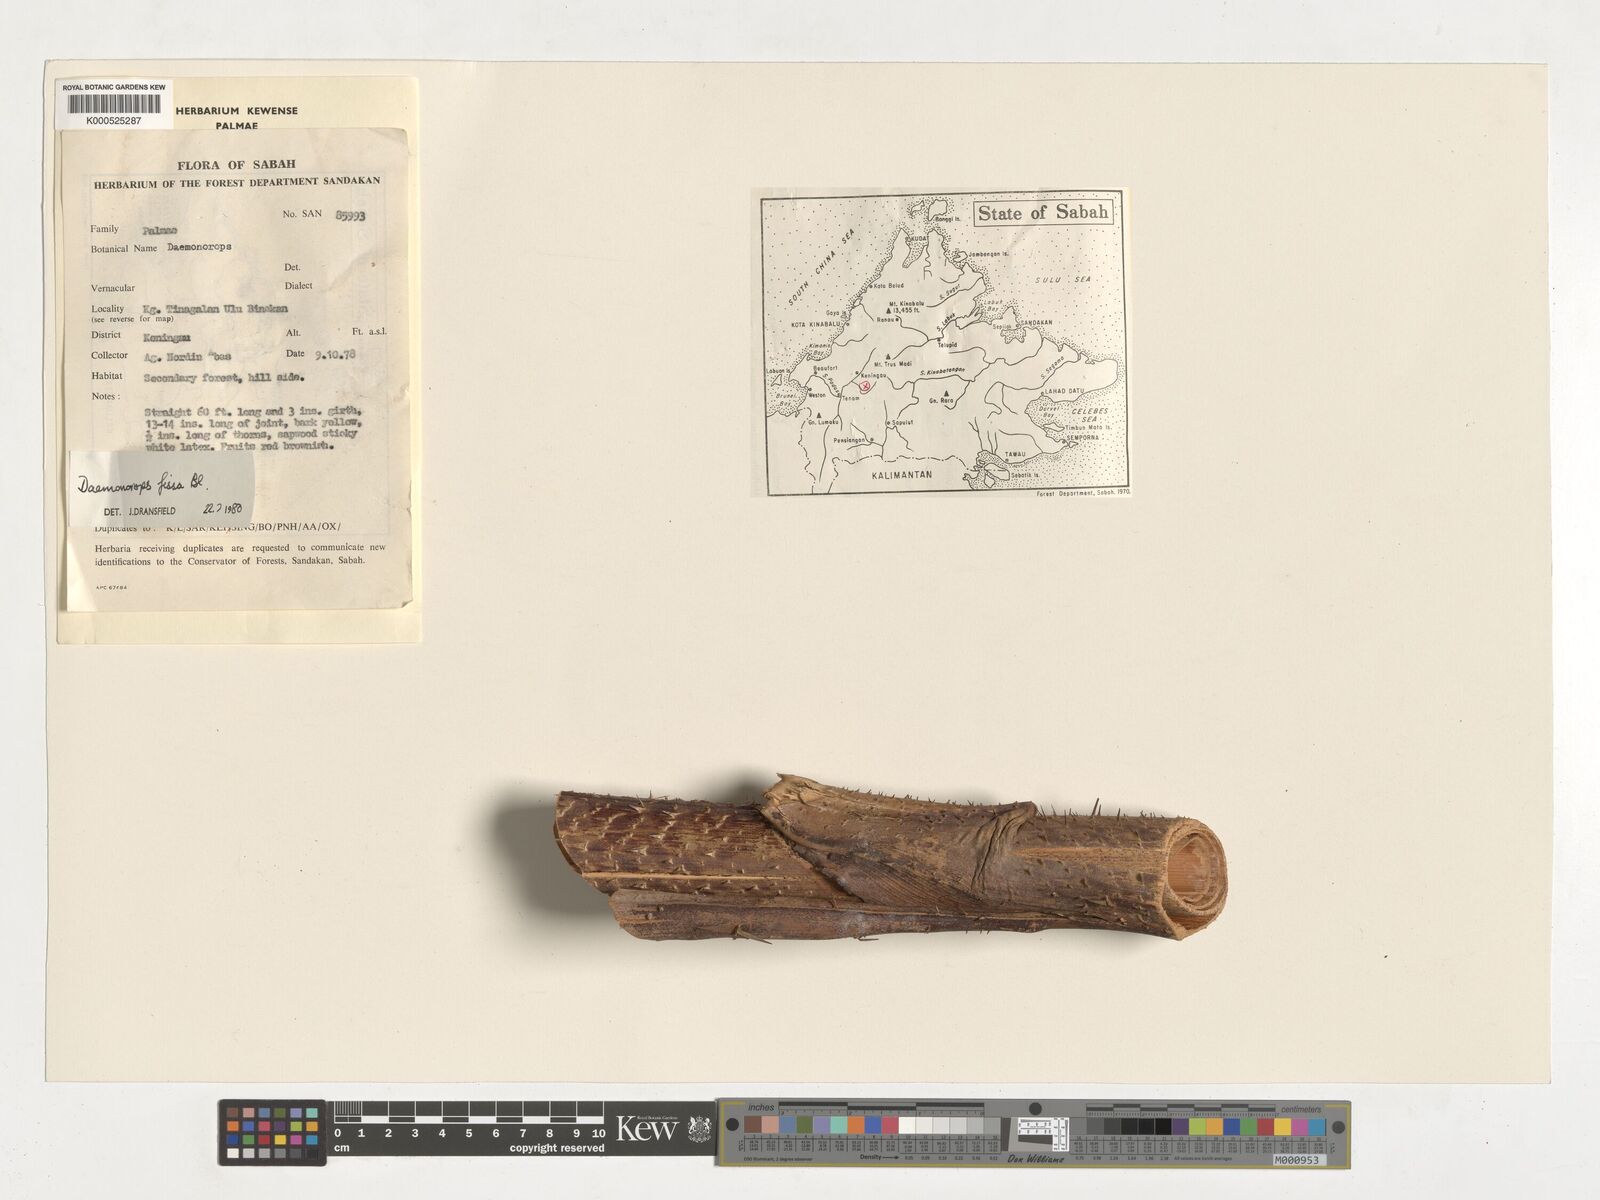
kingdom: Plantae
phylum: Tracheophyta
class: Liliopsida
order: Arecales
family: Arecaceae
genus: Calamus
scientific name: Calamus melanochaetes
